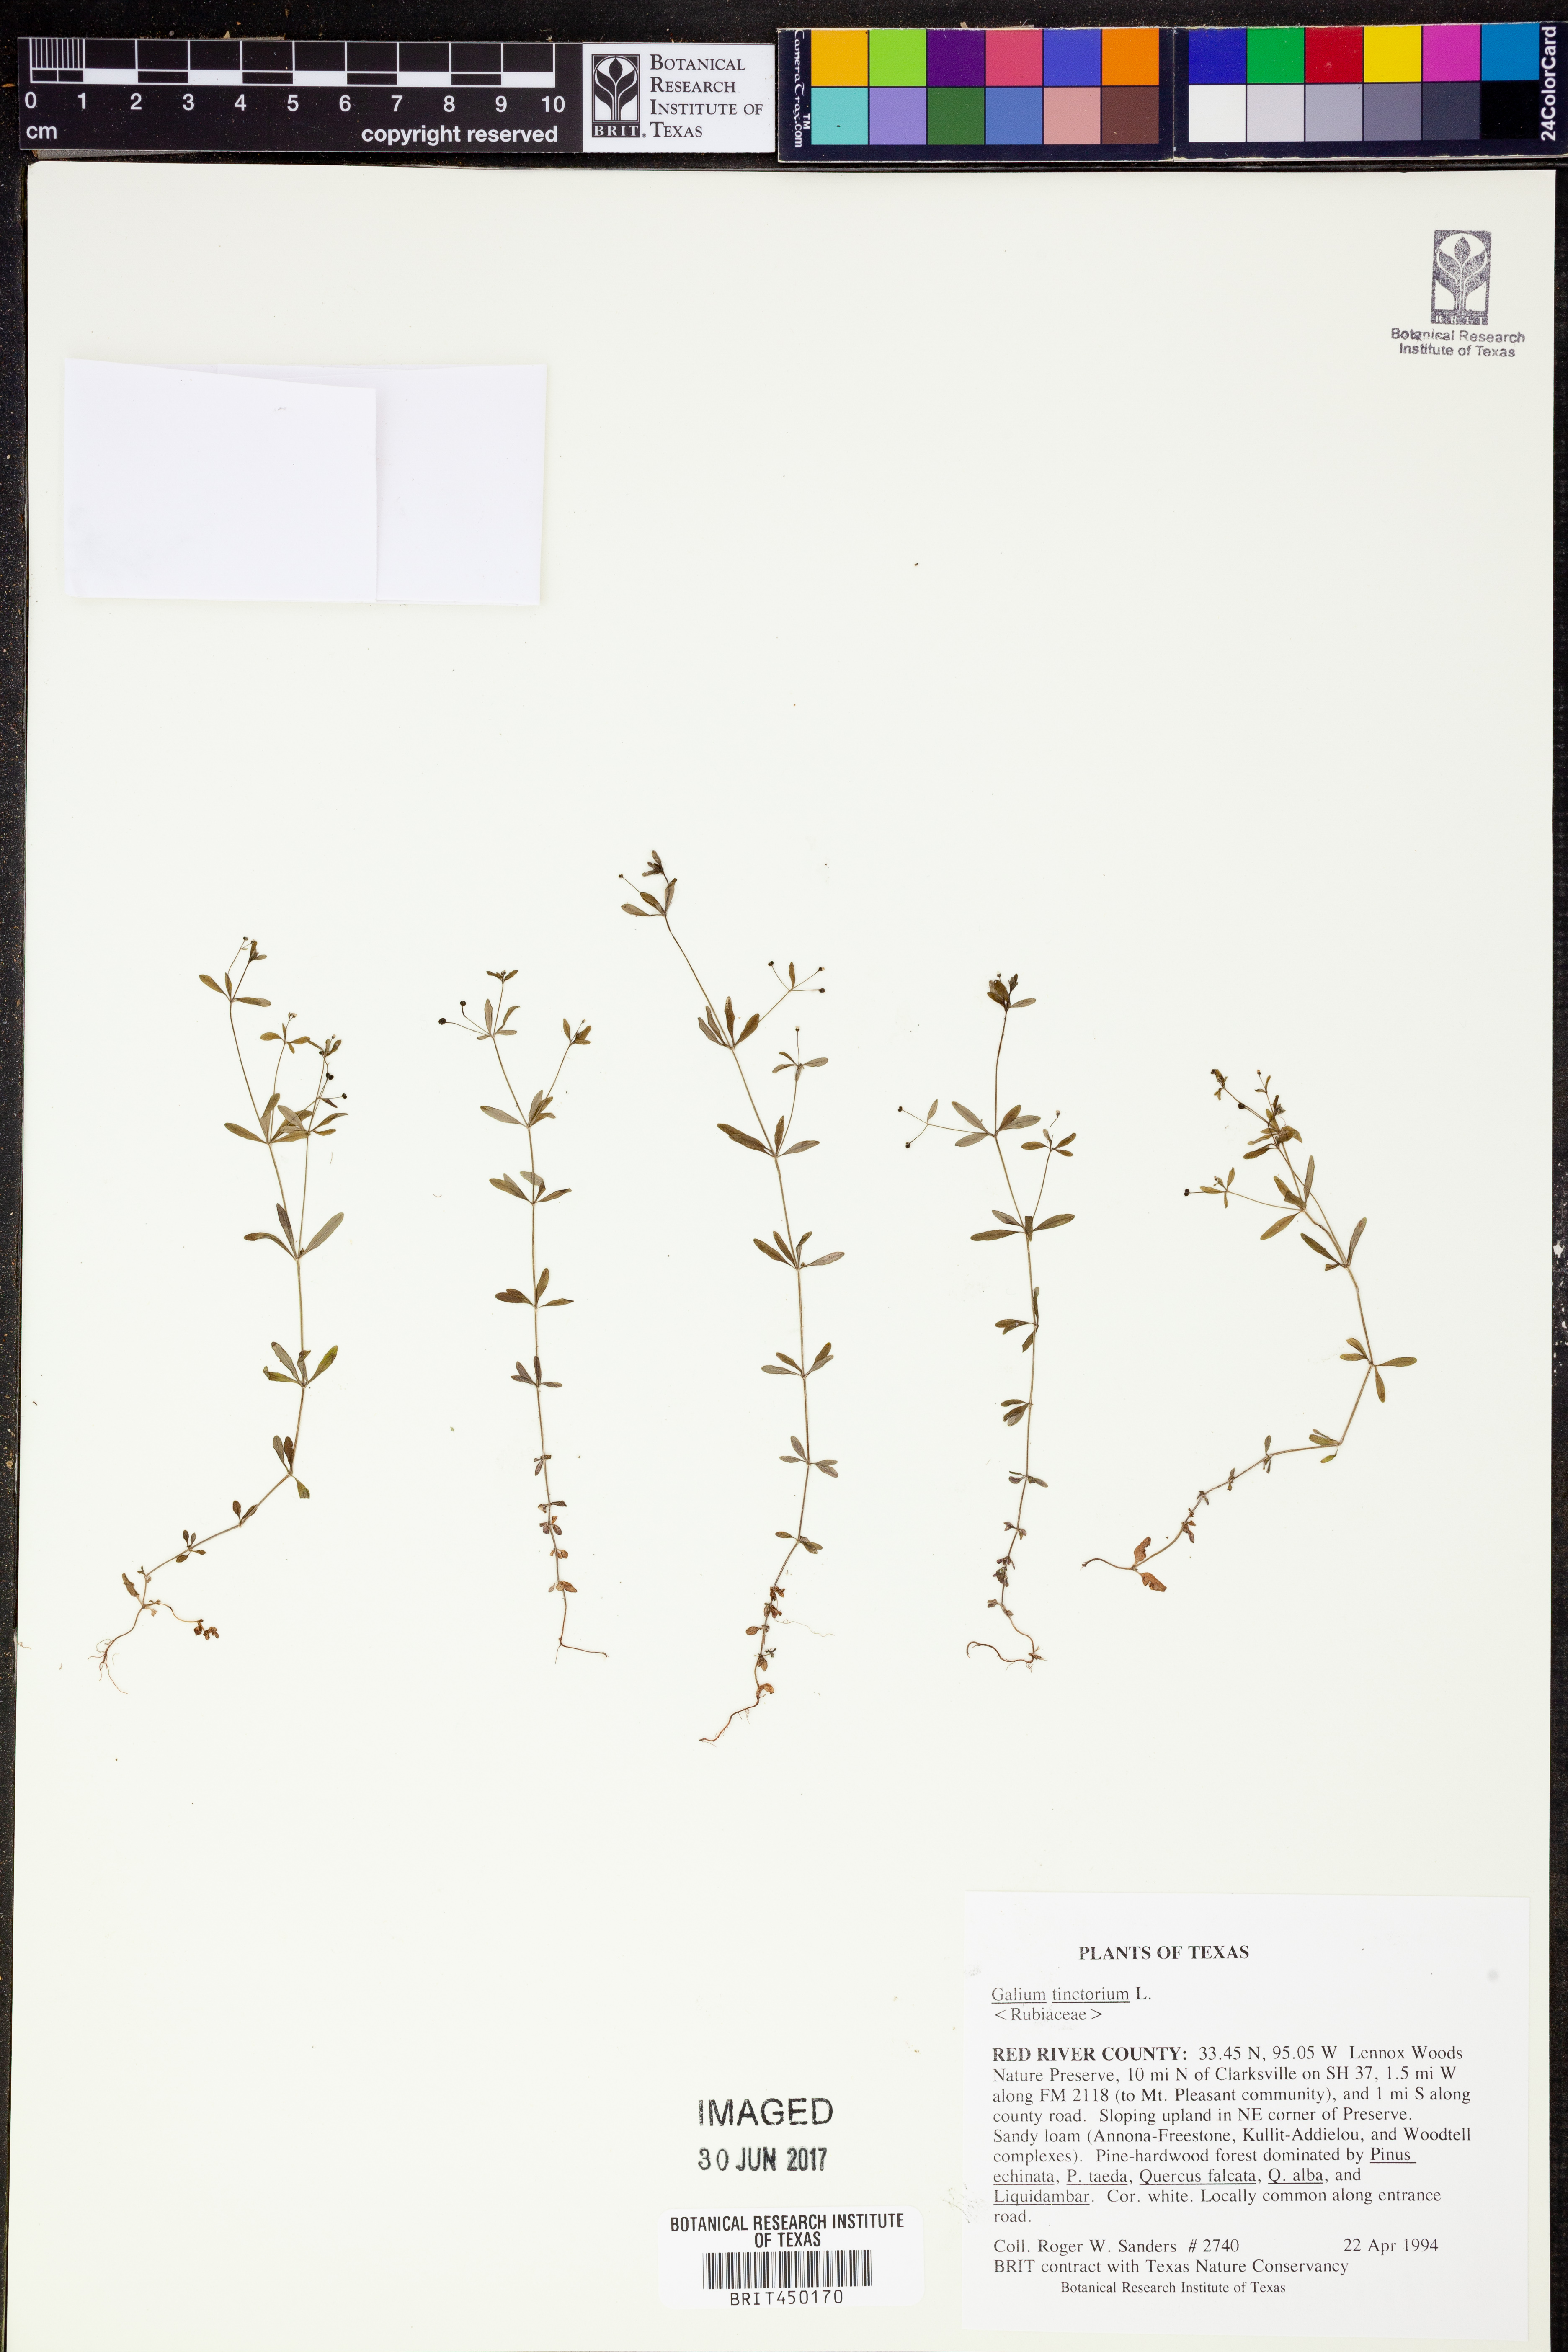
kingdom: Plantae
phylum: Tracheophyta
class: Magnoliopsida
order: Gentianales
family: Rubiaceae
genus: Asperula
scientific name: Asperula tinctoria
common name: Dyer's woodruff
